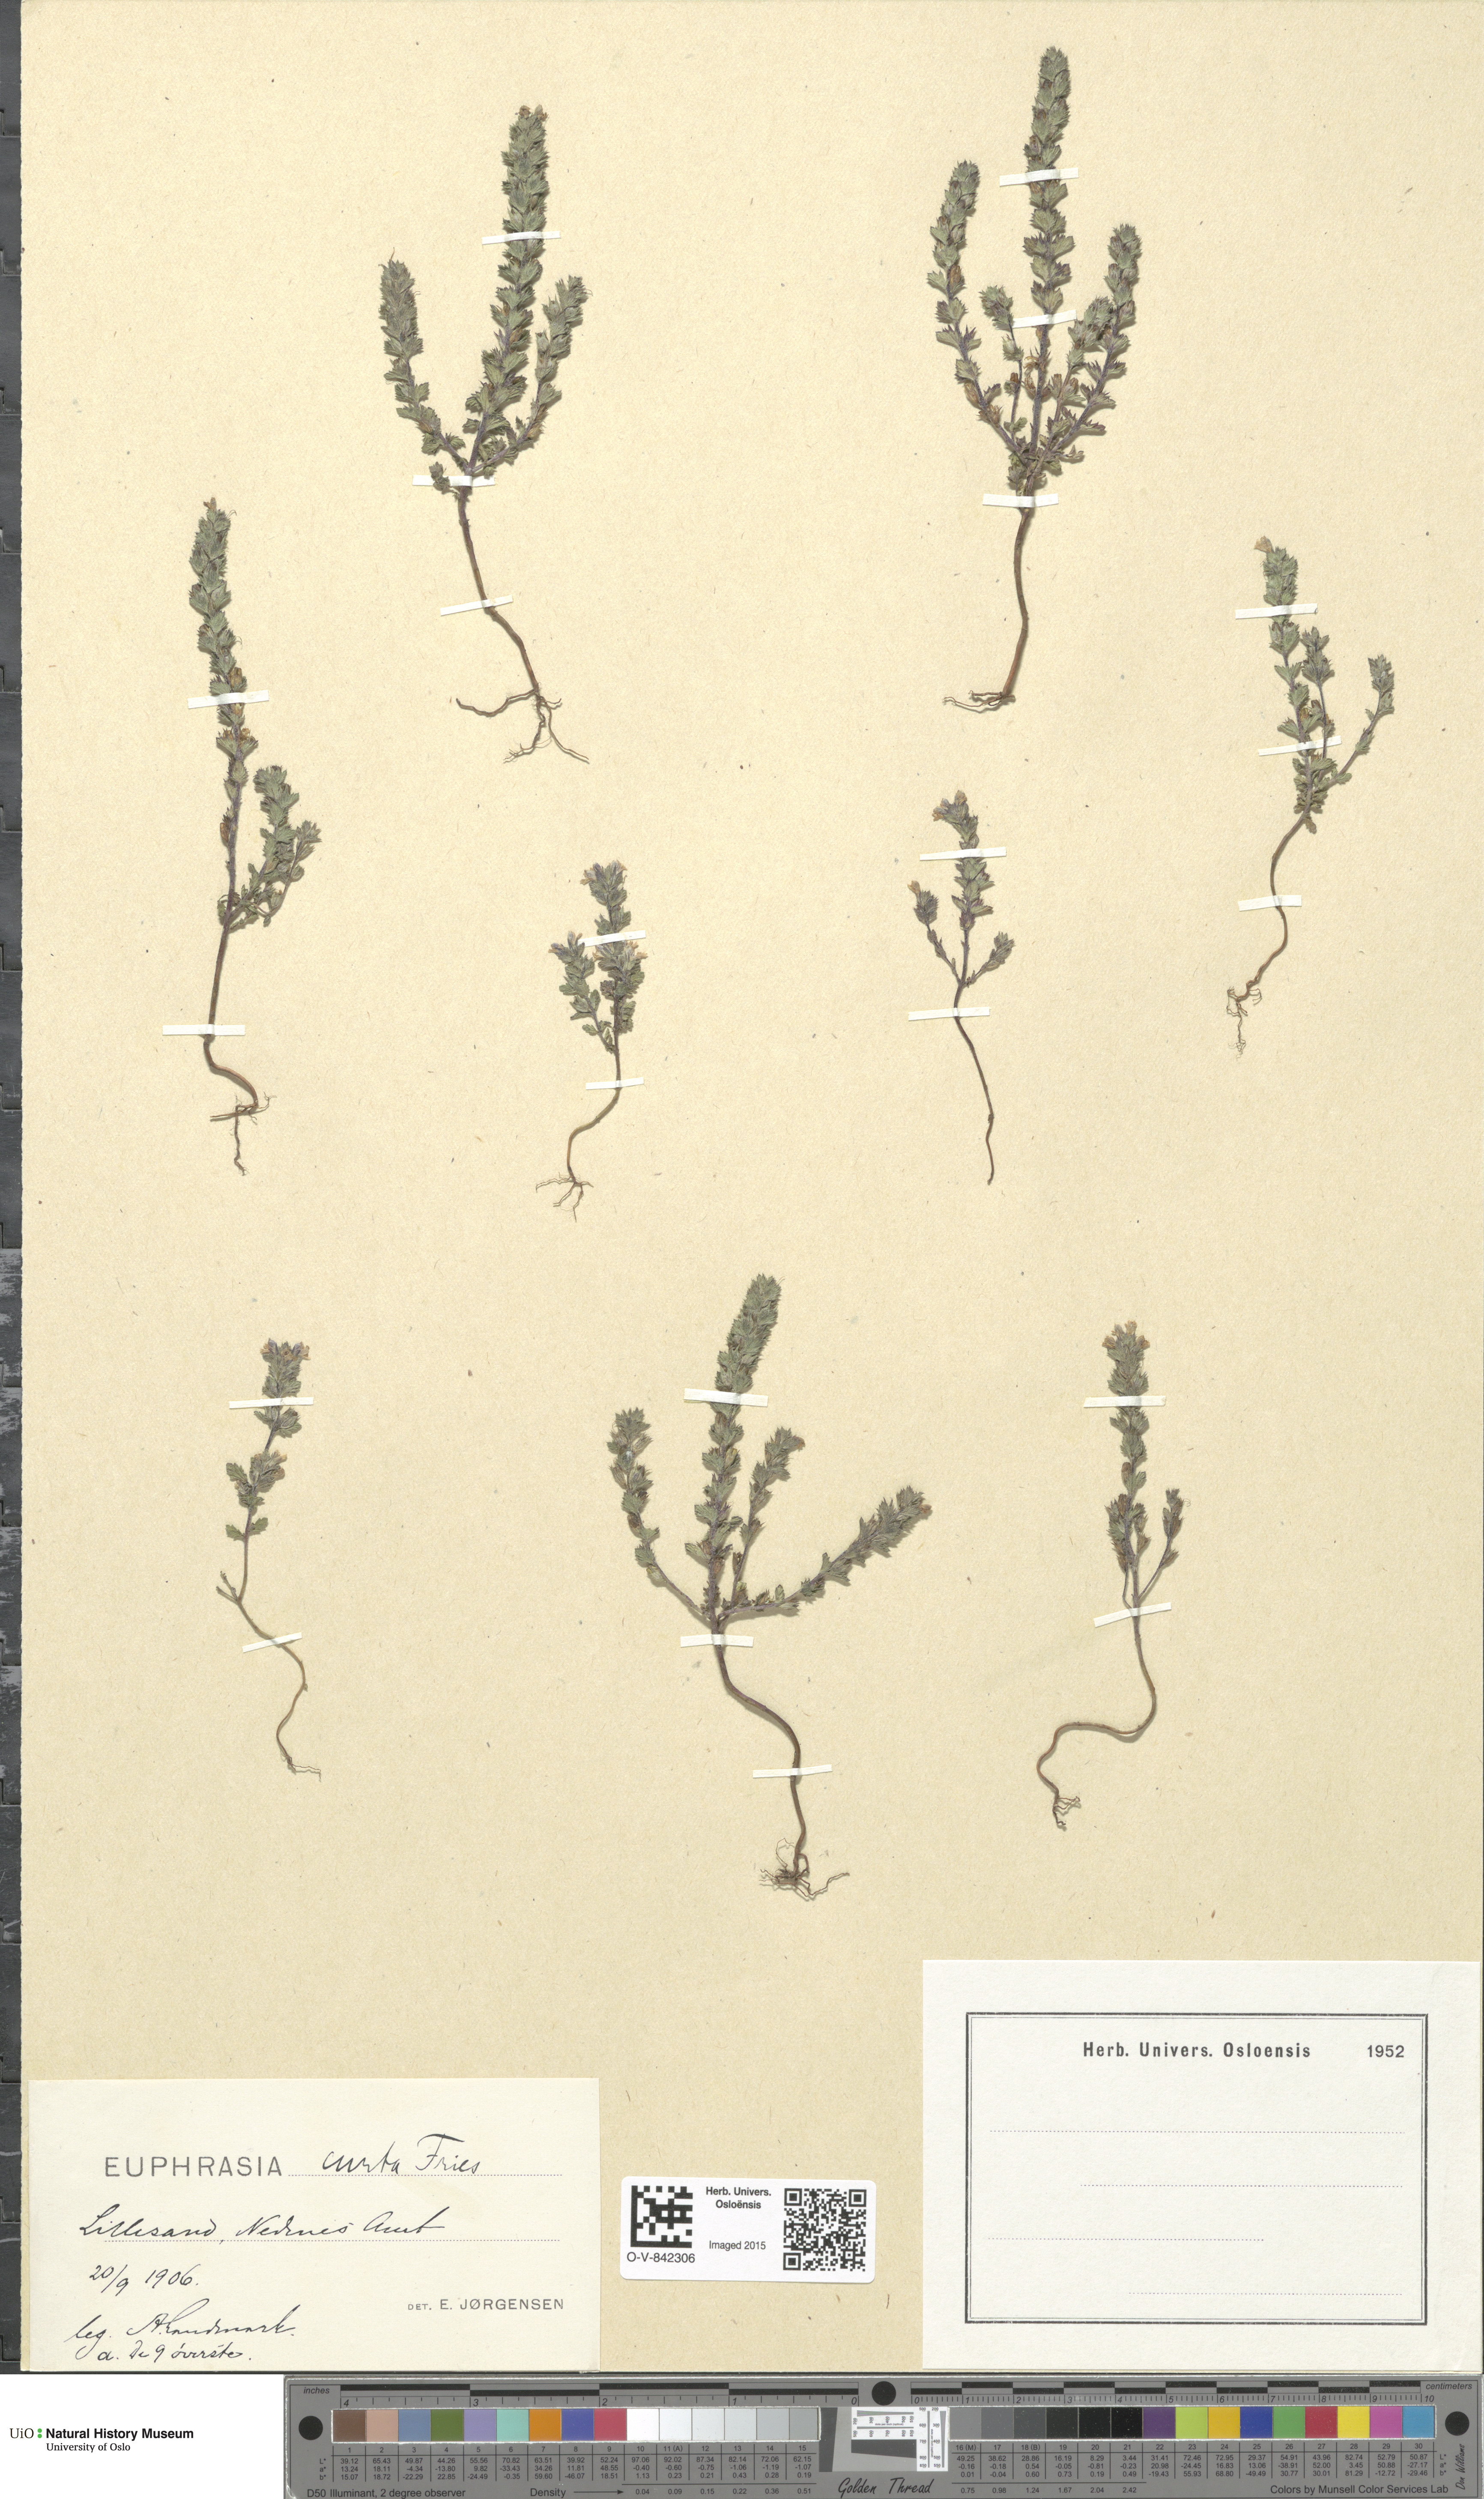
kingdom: Plantae
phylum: Tracheophyta
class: Magnoliopsida
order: Lamiales
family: Orobanchaceae
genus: Euphrasia
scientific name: Euphrasia micrantha
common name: Northern eyebright
